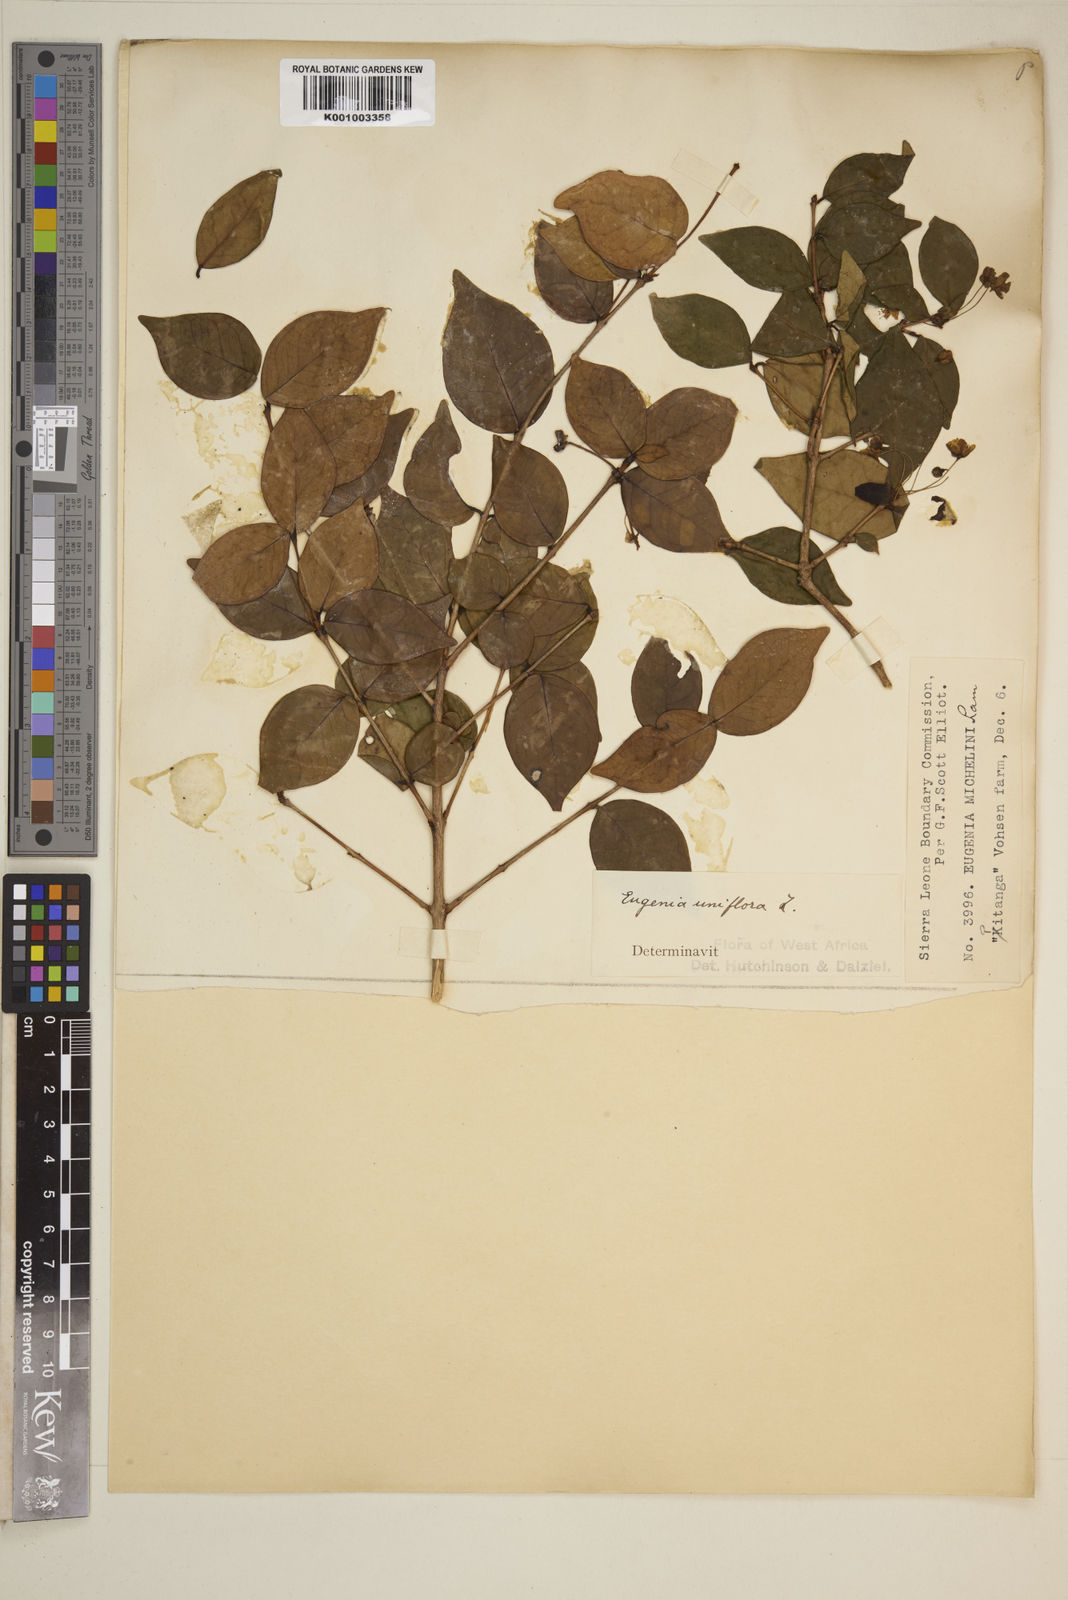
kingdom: Plantae
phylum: Tracheophyta
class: Magnoliopsida
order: Myrtales
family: Myrtaceae
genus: Eugenia
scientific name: Eugenia uniflora
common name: Surinam cherry
